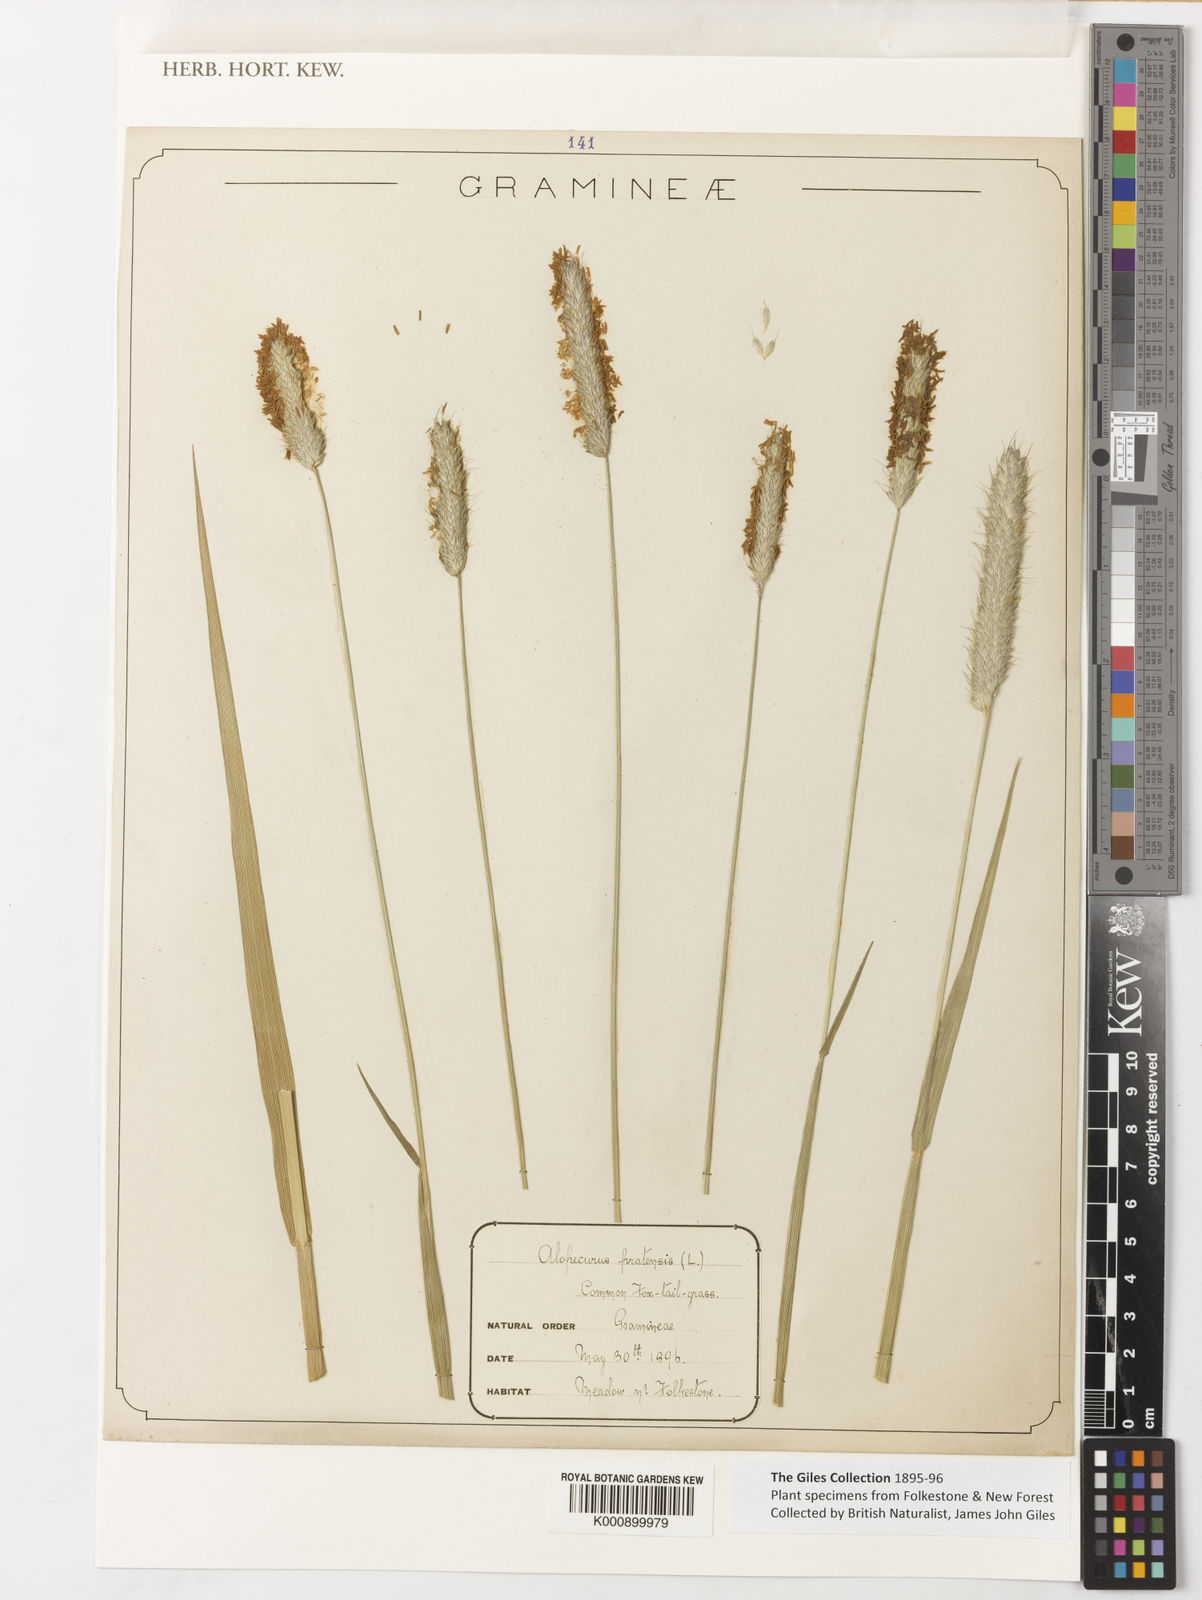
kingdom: Plantae
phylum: Tracheophyta
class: Liliopsida
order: Poales
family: Poaceae
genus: Alopecurus
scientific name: Alopecurus pratensis
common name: Meadow foxtail
